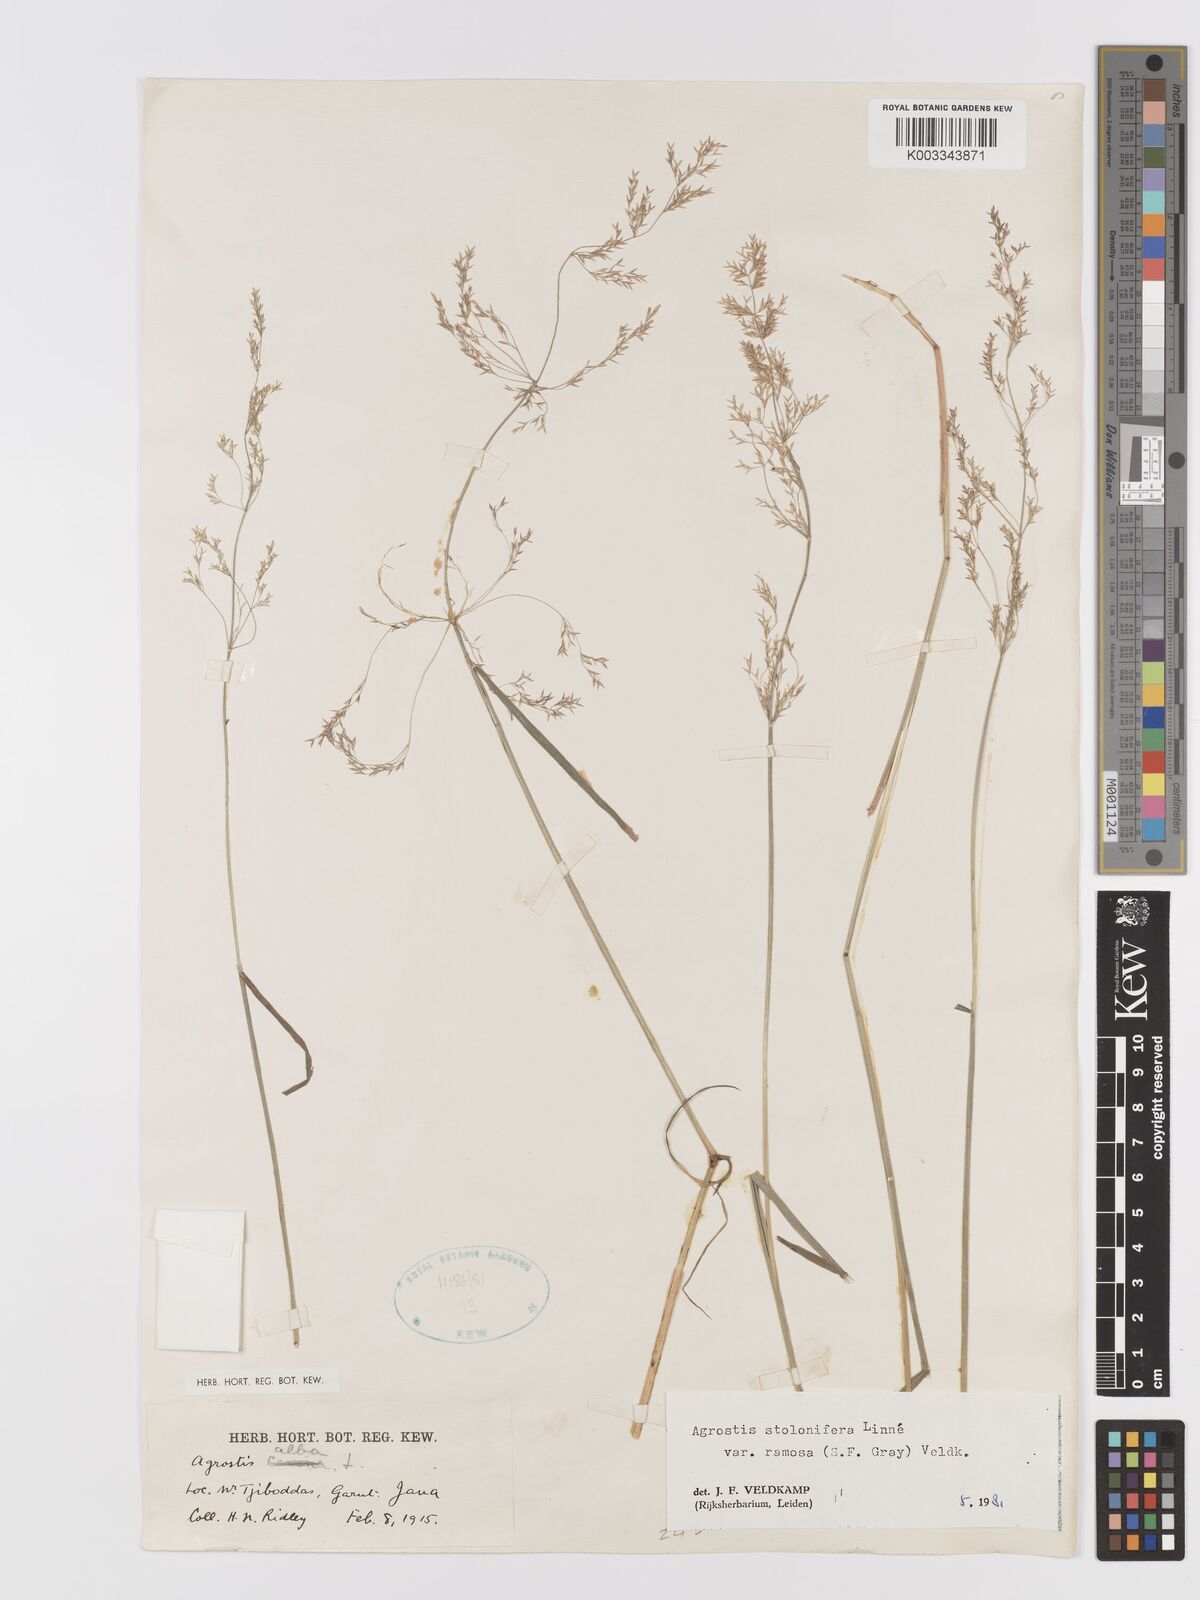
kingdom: Plantae
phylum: Tracheophyta
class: Liliopsida
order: Poales
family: Poaceae
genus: Agrostis
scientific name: Agrostis gigantea
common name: Black bent
